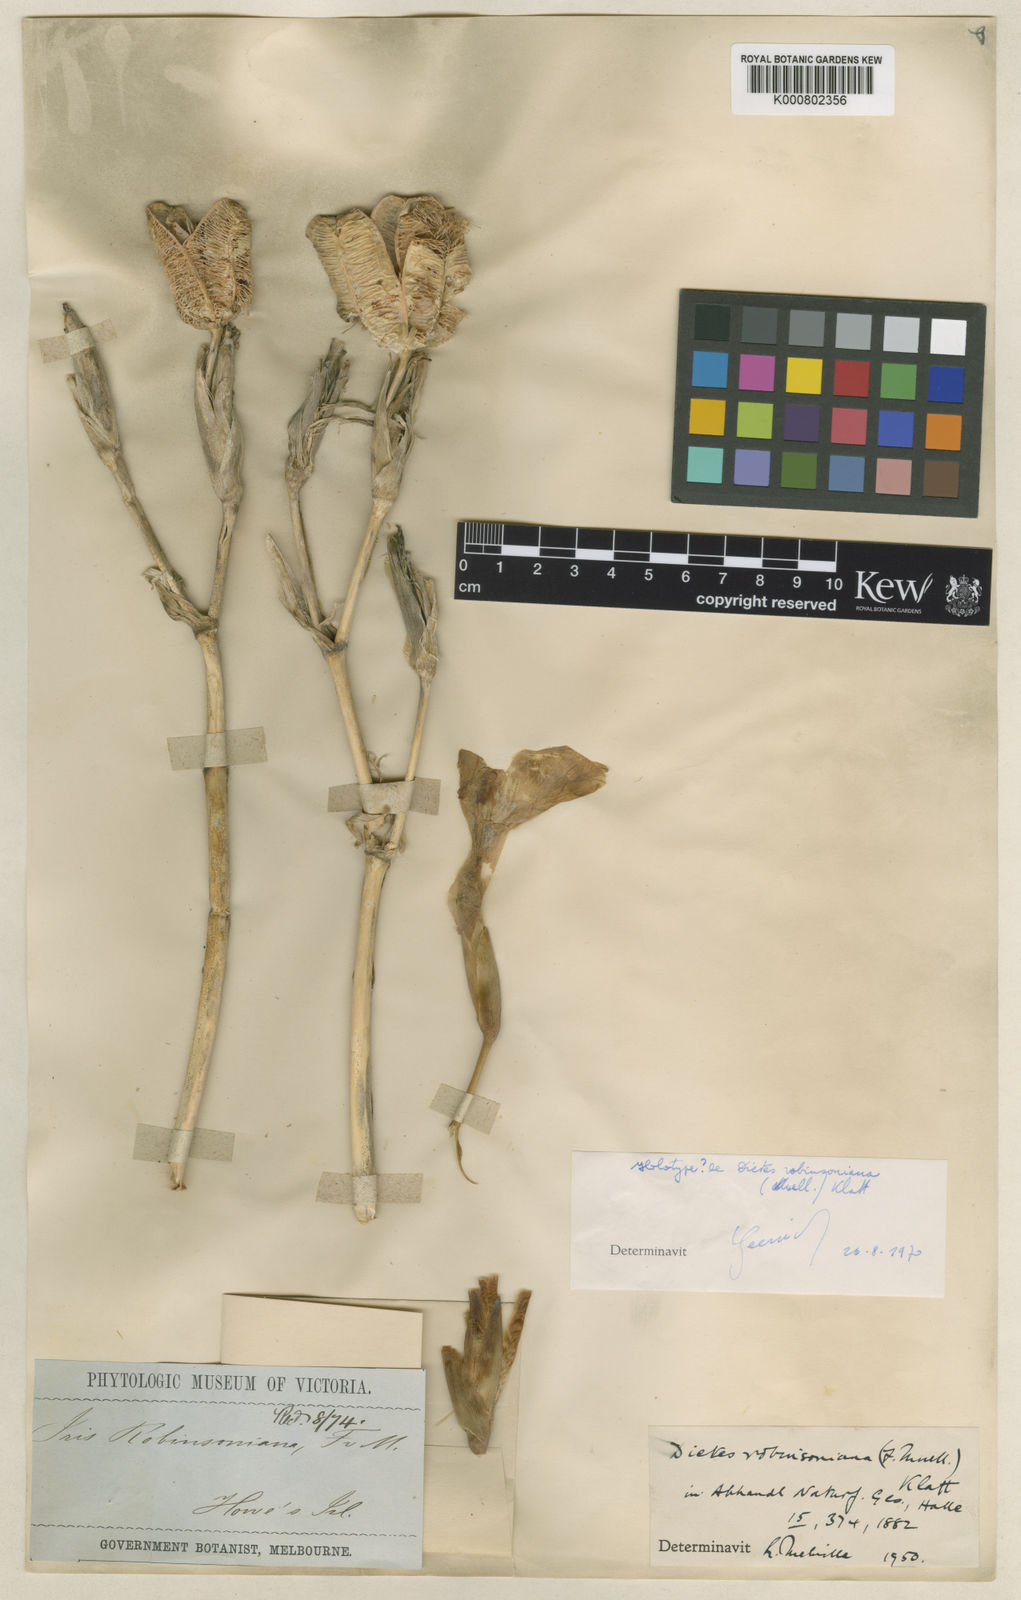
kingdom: Plantae
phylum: Tracheophyta
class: Liliopsida
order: Asparagales
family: Iridaceae
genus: Dietes
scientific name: Dietes robinsoniana
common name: Wedding-lily
